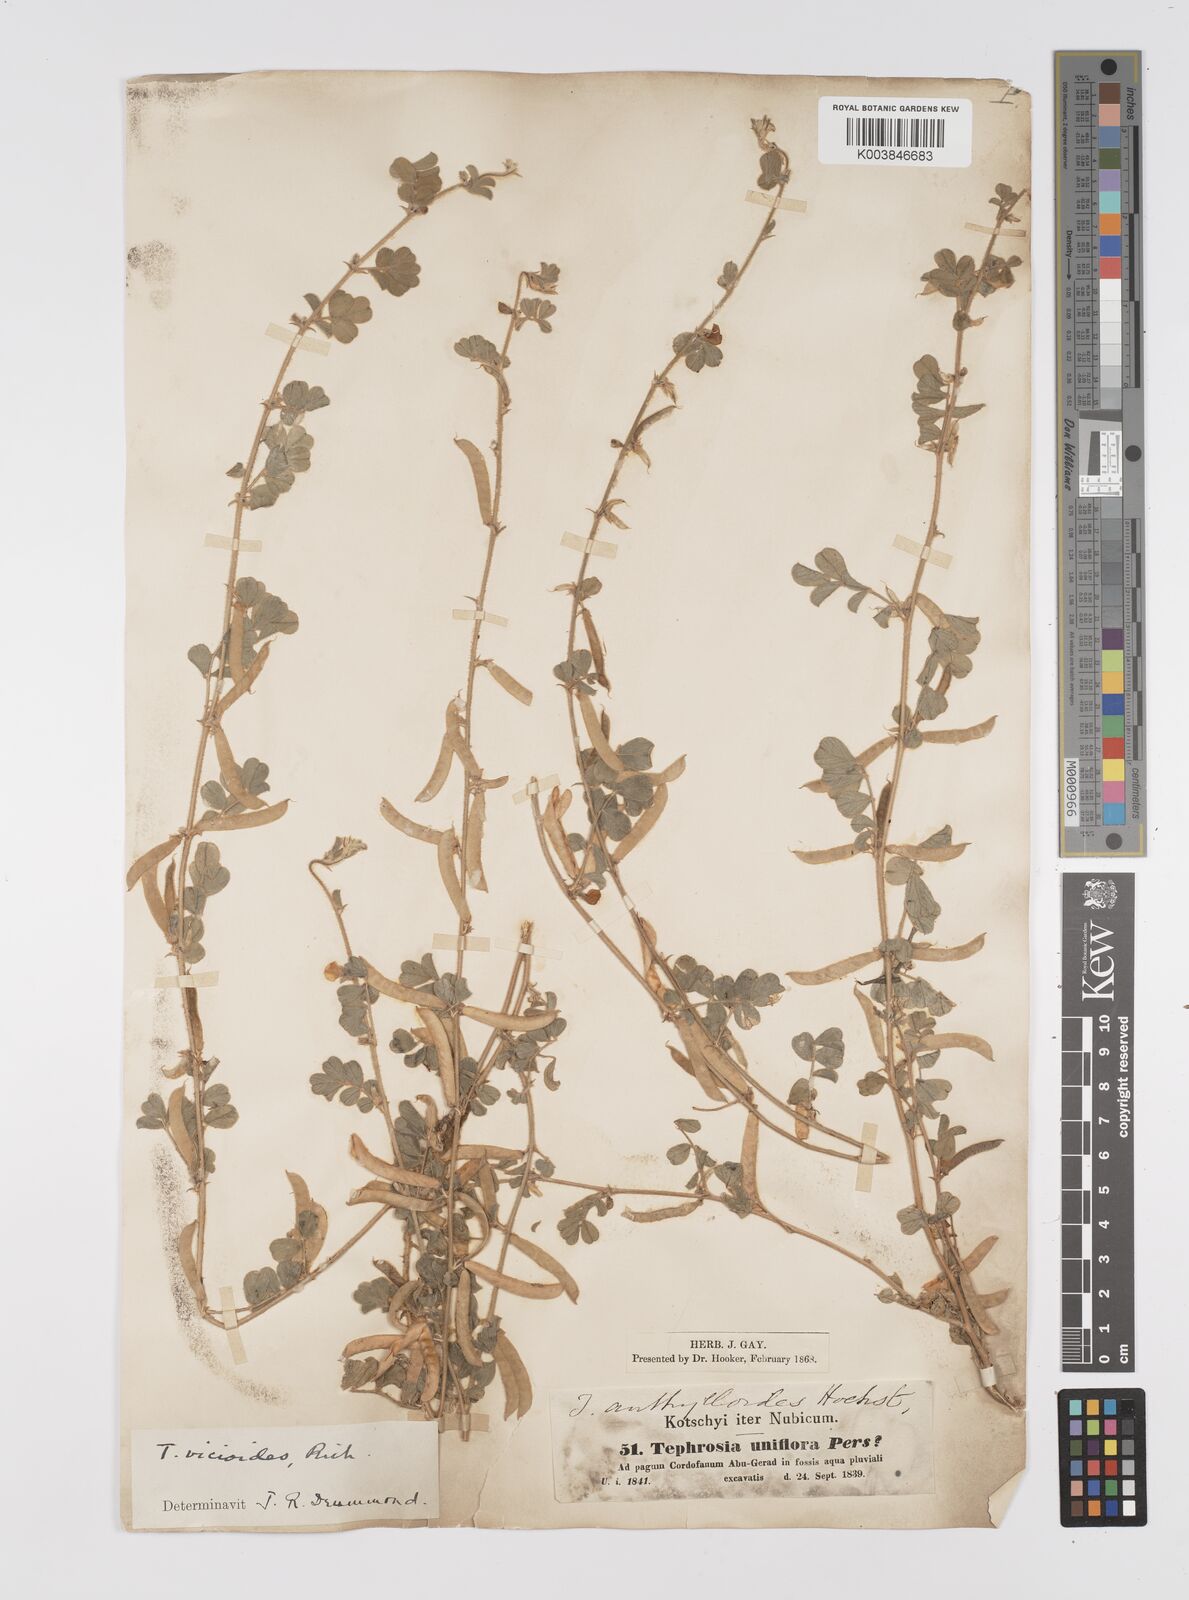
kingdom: Plantae
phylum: Tracheophyta
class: Magnoliopsida
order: Fabales
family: Fabaceae
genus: Tephrosia
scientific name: Tephrosia uniflora
